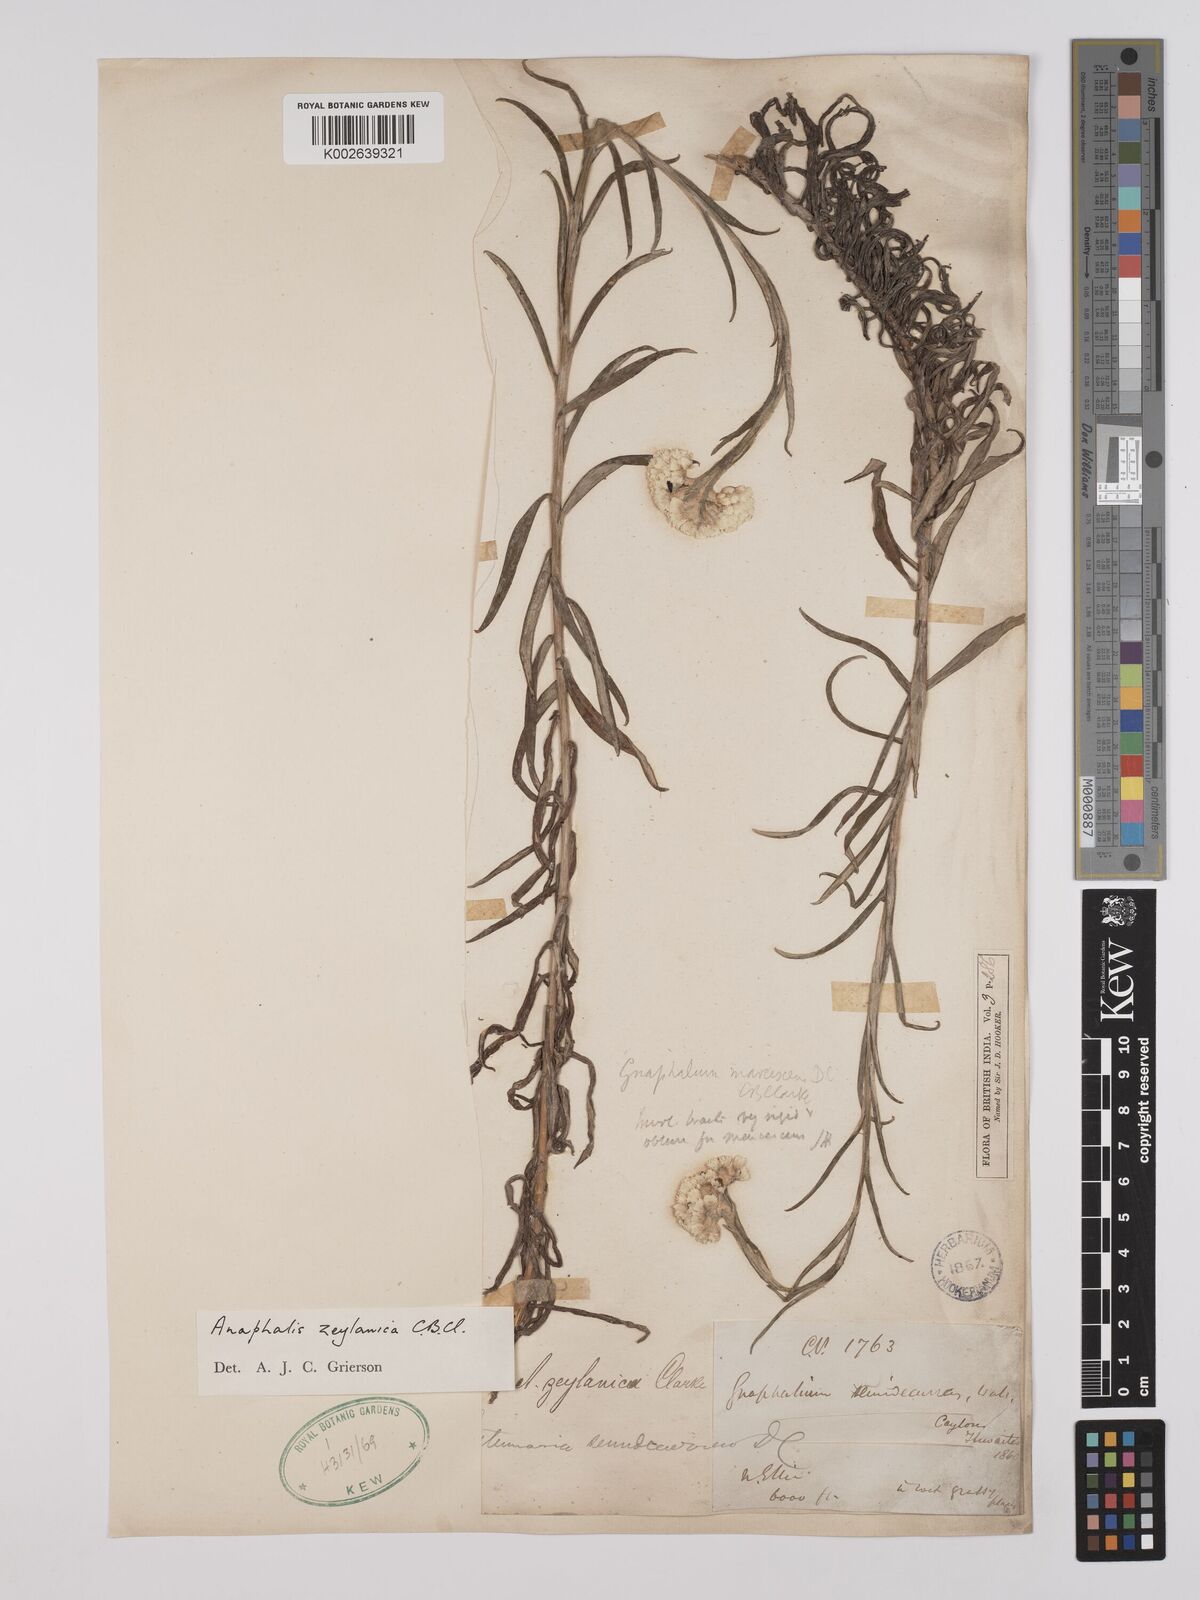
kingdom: Plantae
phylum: Tracheophyta
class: Magnoliopsida
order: Asterales
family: Asteraceae
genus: Anaphalis
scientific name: Anaphalis zeylanica
